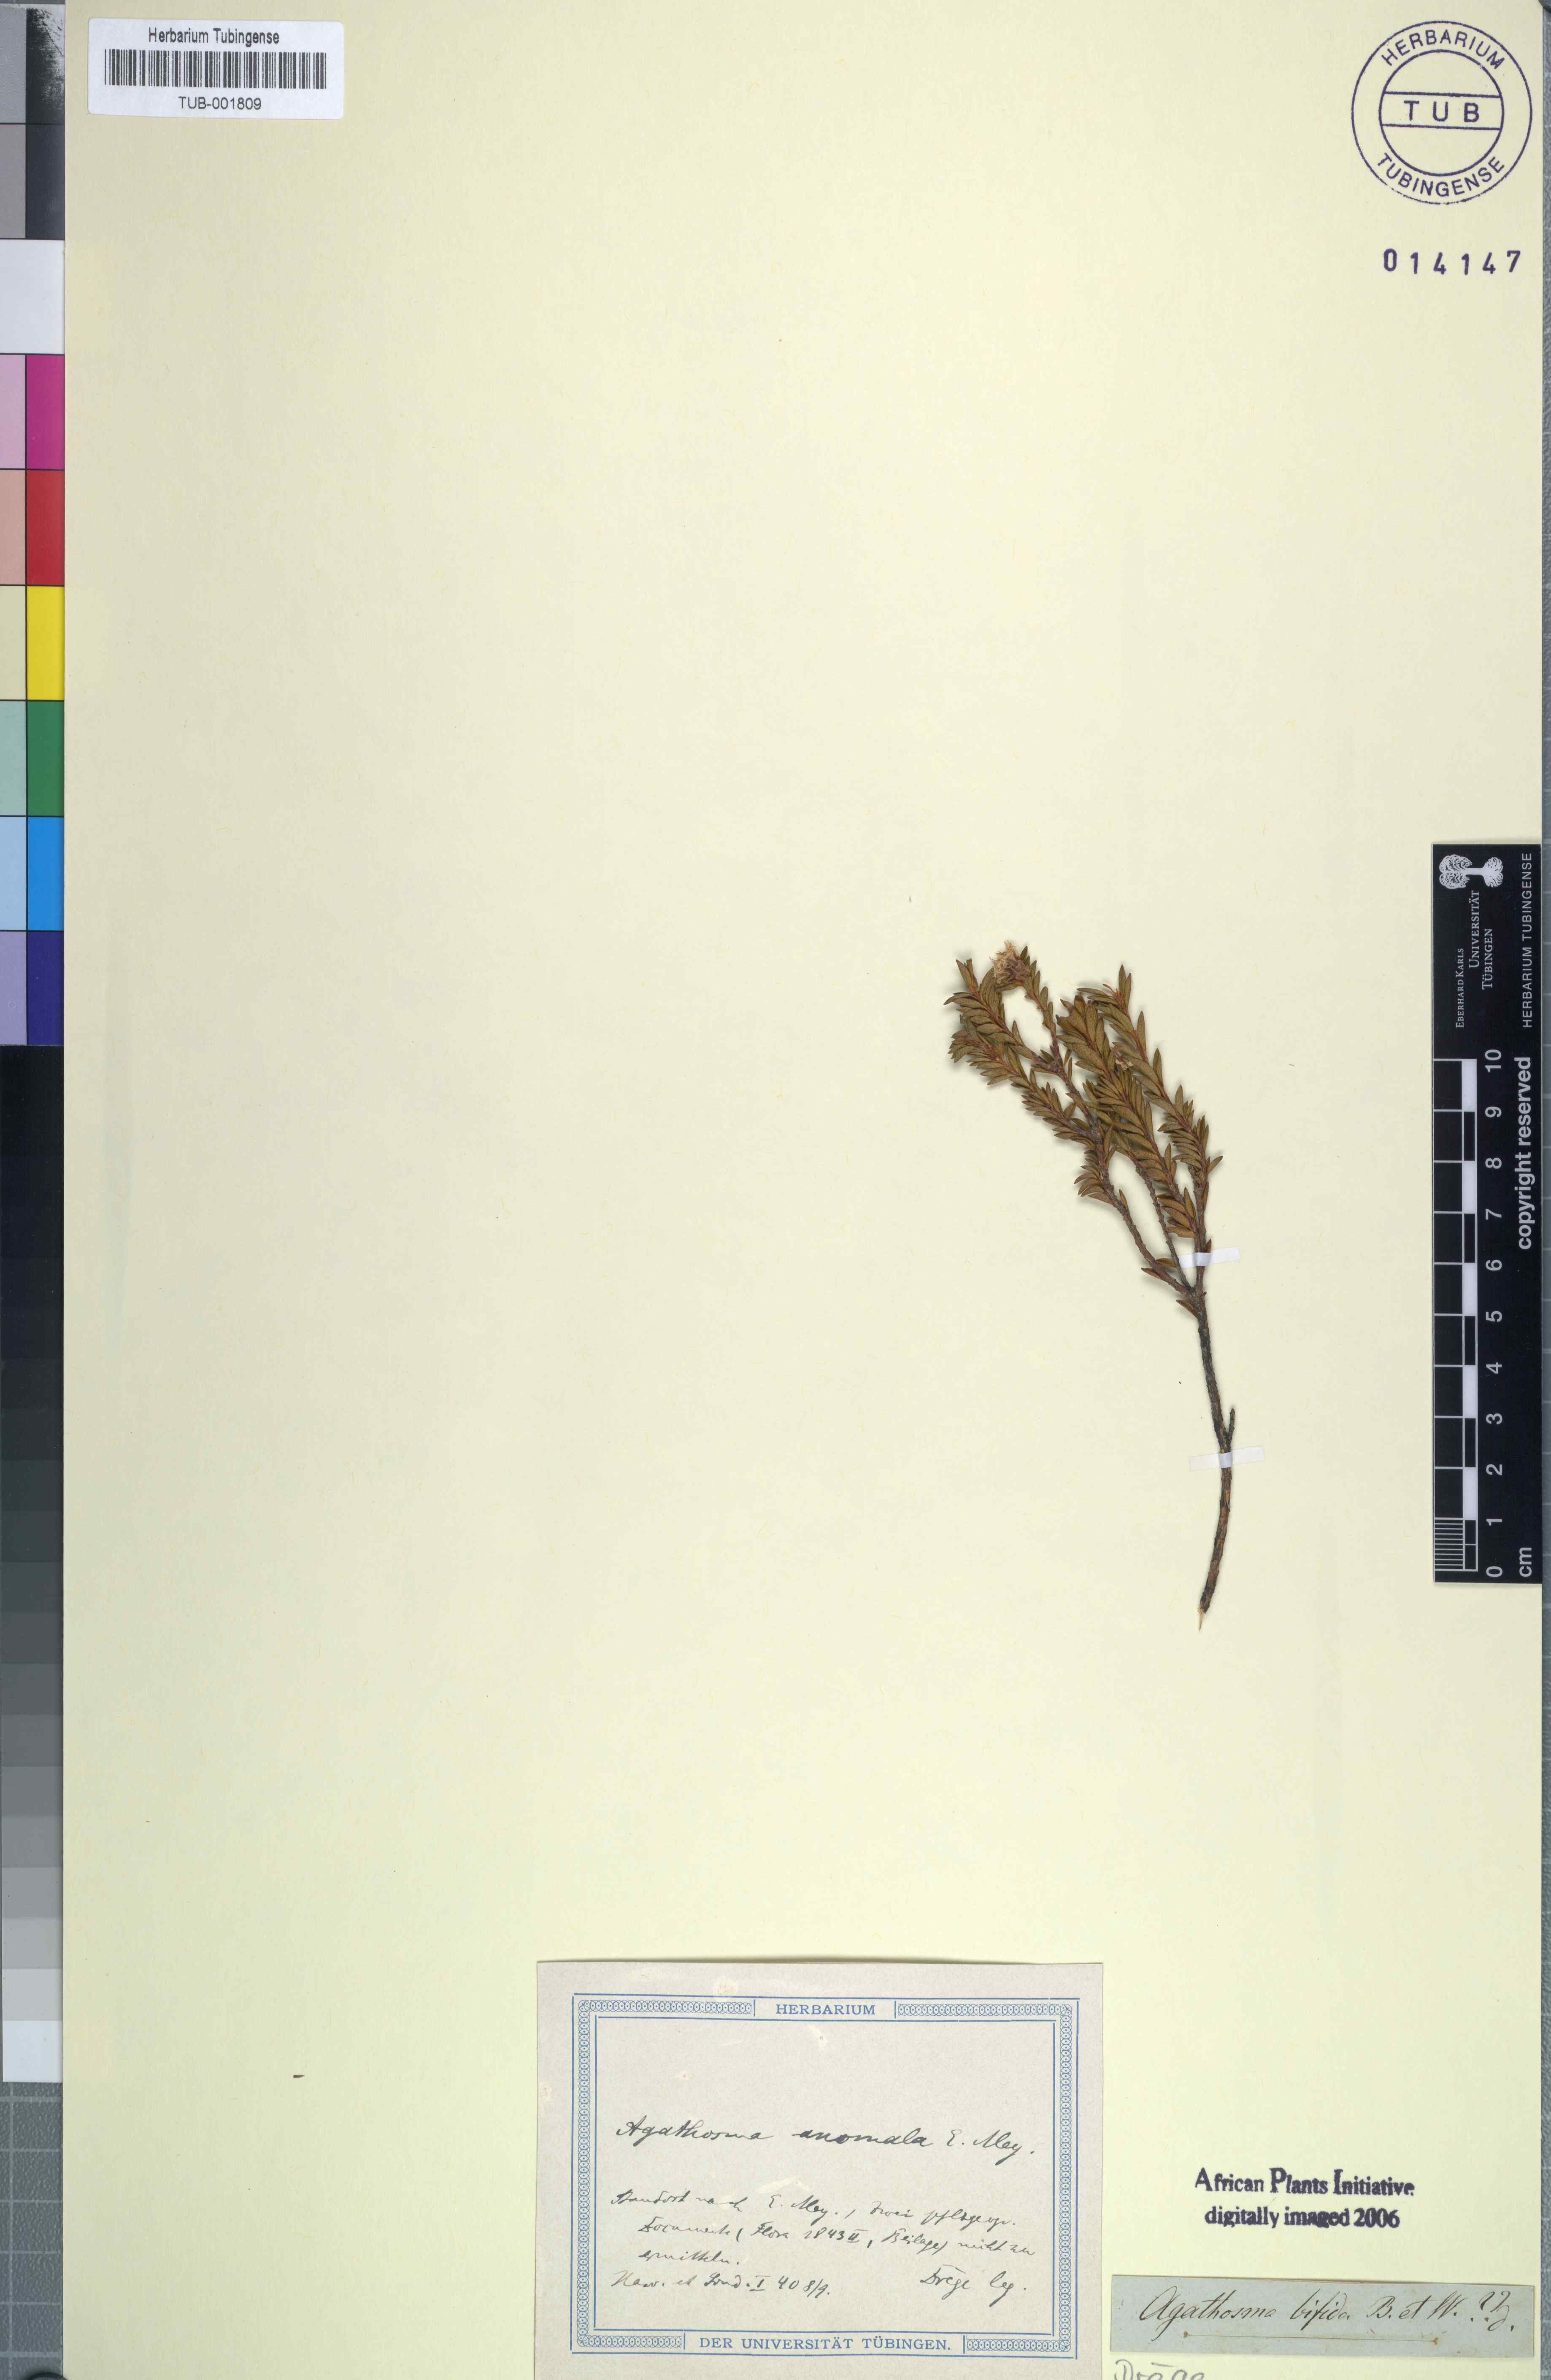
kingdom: Plantae
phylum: Tracheophyta
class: Magnoliopsida
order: Sapindales
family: Rutaceae
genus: Agathosma
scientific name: Agathosma anomala
